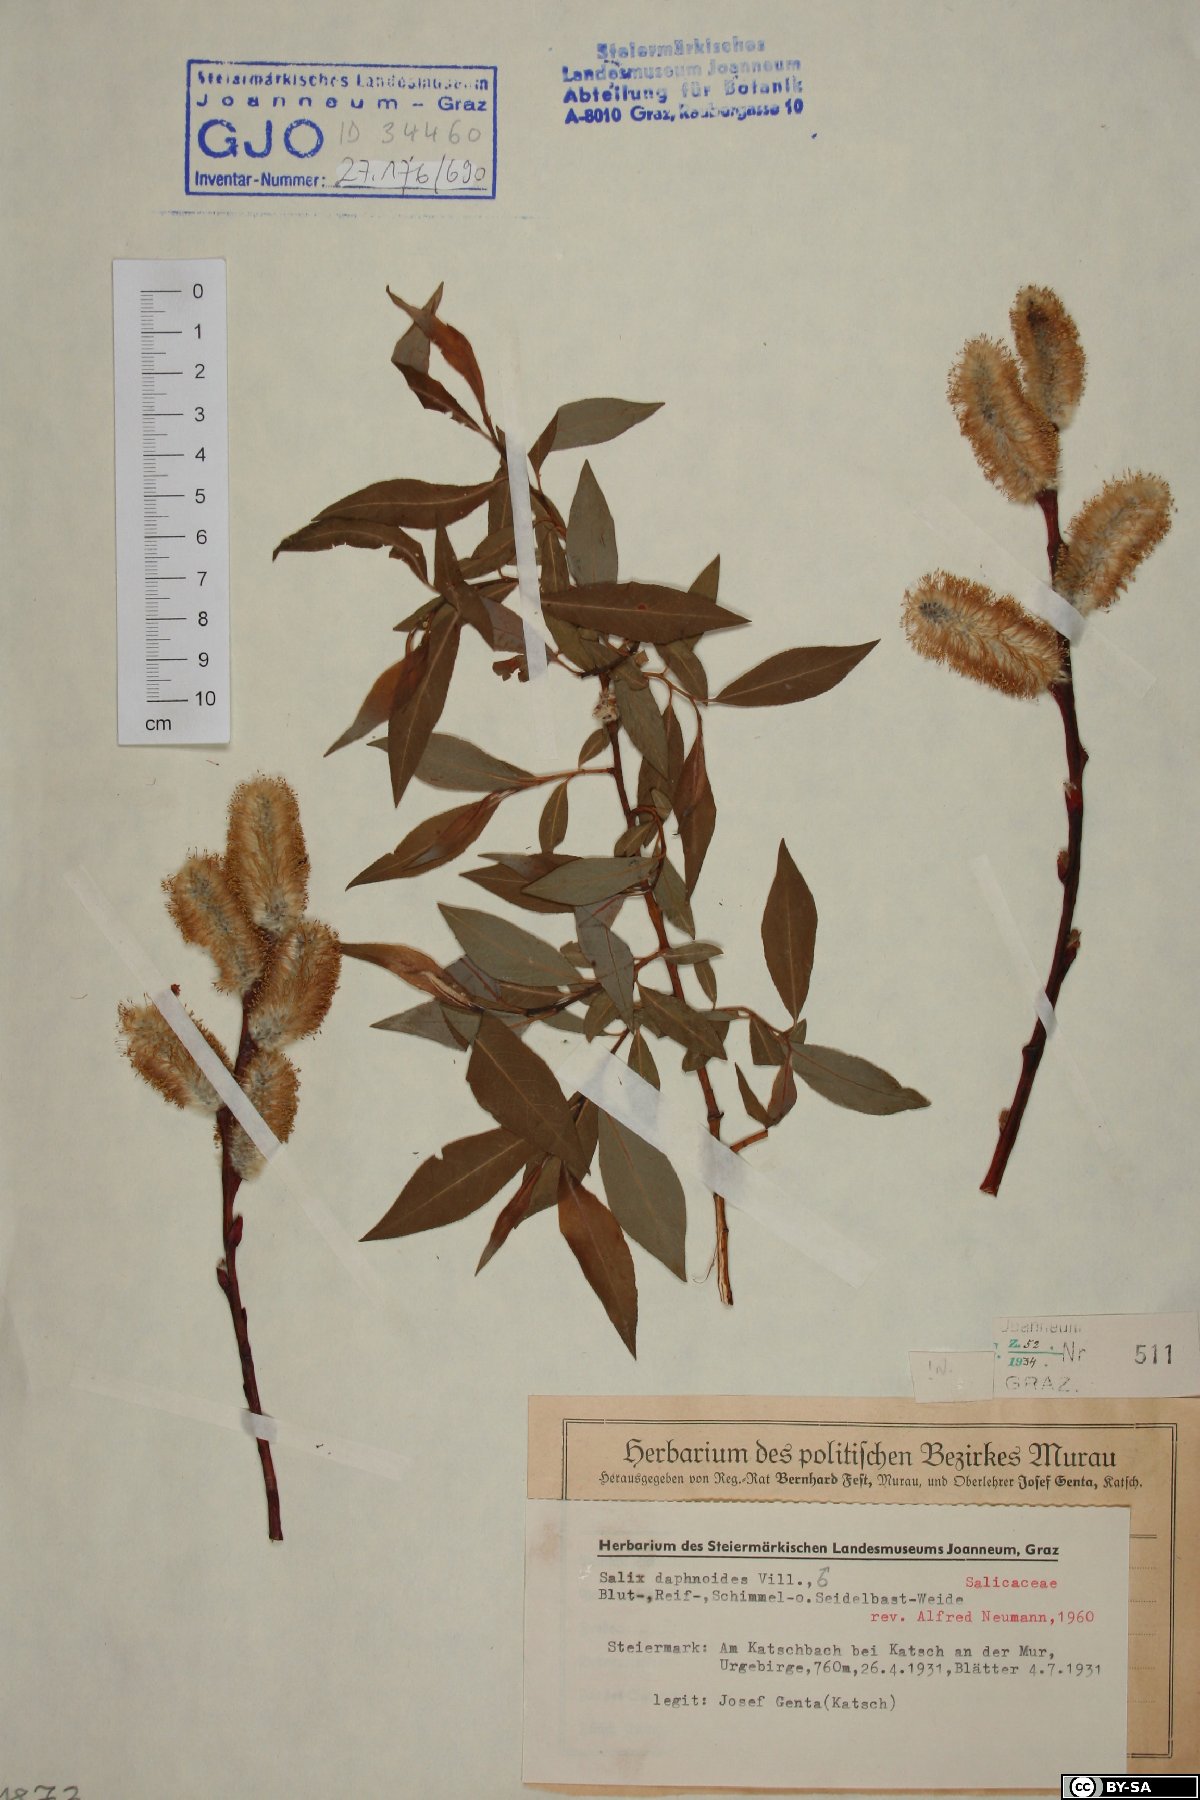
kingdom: Plantae
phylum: Tracheophyta
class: Magnoliopsida
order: Malpighiales
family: Salicaceae
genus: Salix
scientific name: Salix daphnoides
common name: European violet-willow
